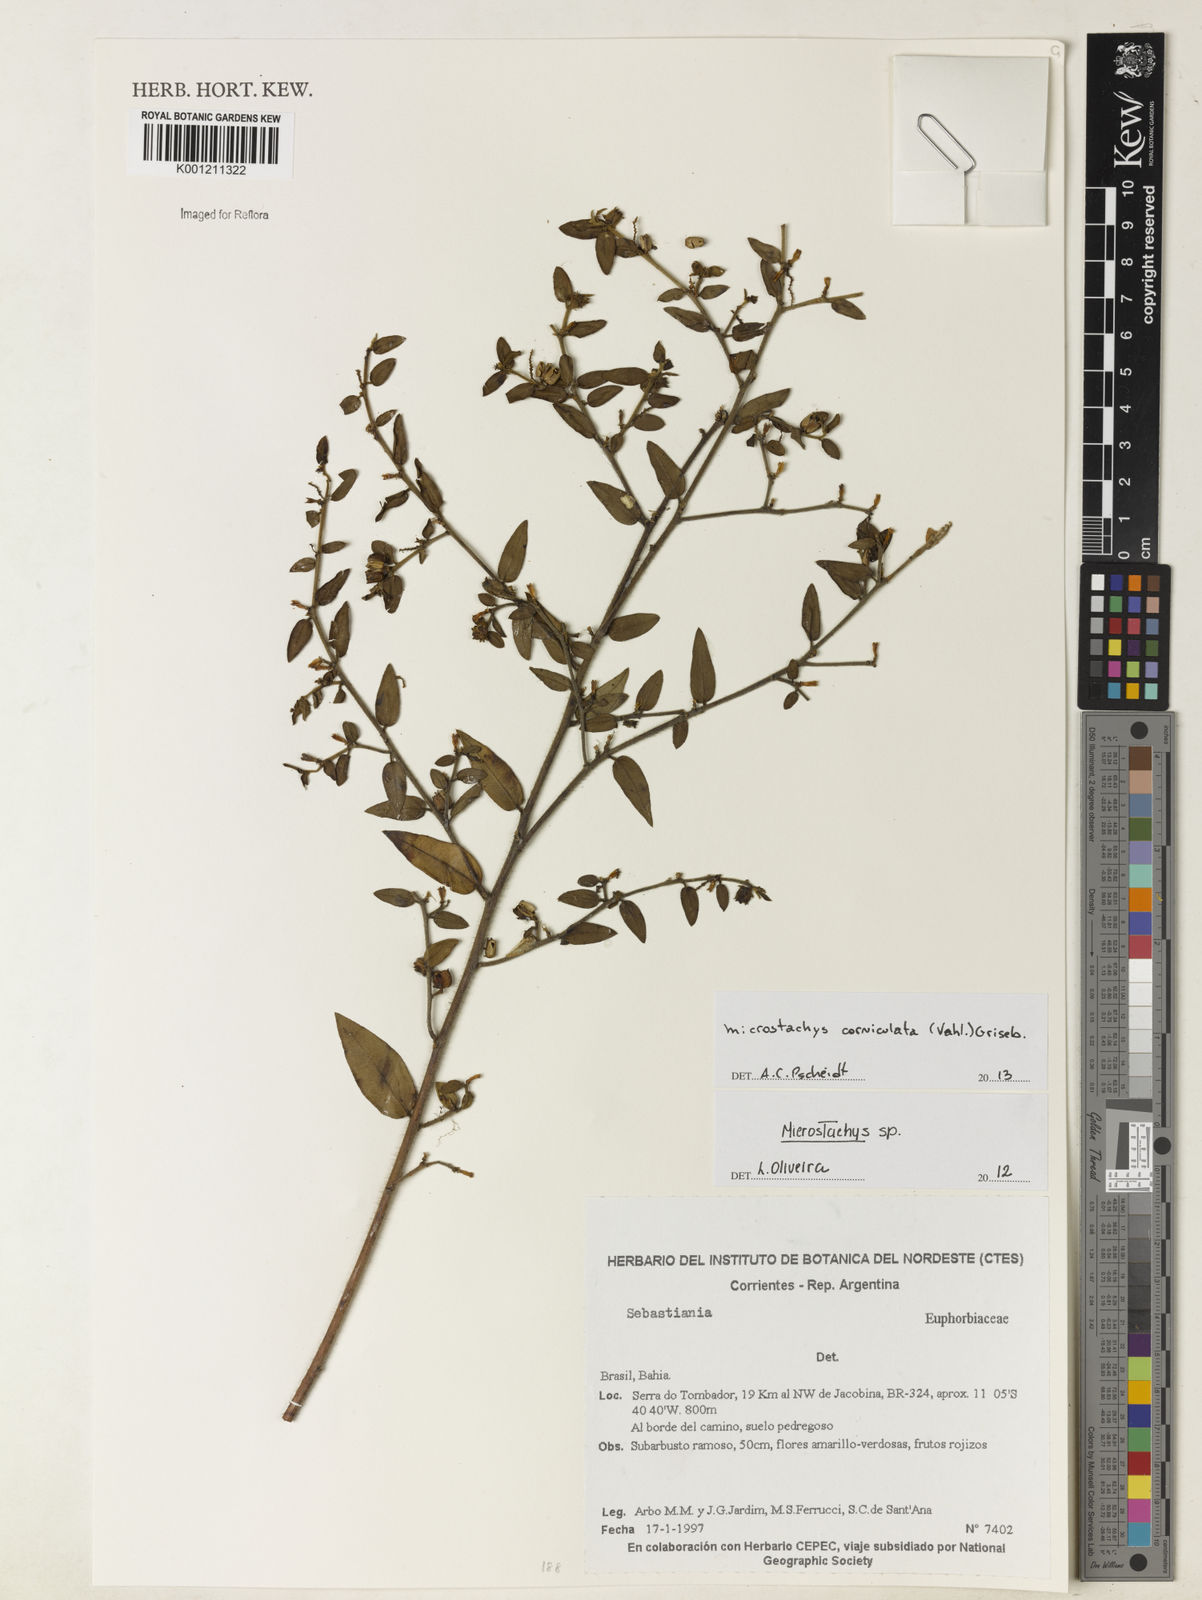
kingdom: Plantae
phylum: Tracheophyta
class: Magnoliopsida
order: Malpighiales
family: Euphorbiaceae
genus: Microstachys
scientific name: Microstachys corniculata
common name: Hato tejas
